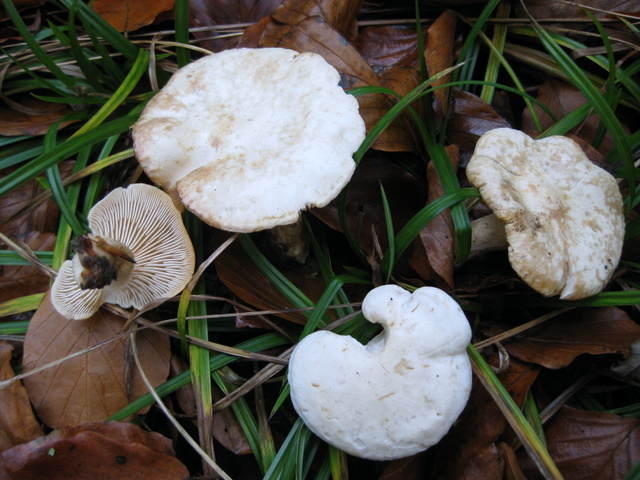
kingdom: Fungi
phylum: Basidiomycota
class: Agaricomycetes
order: Agaricales
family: Tricholomataceae
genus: Tricholoma
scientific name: Tricholoma lascivum
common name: stinkende ridderhat
